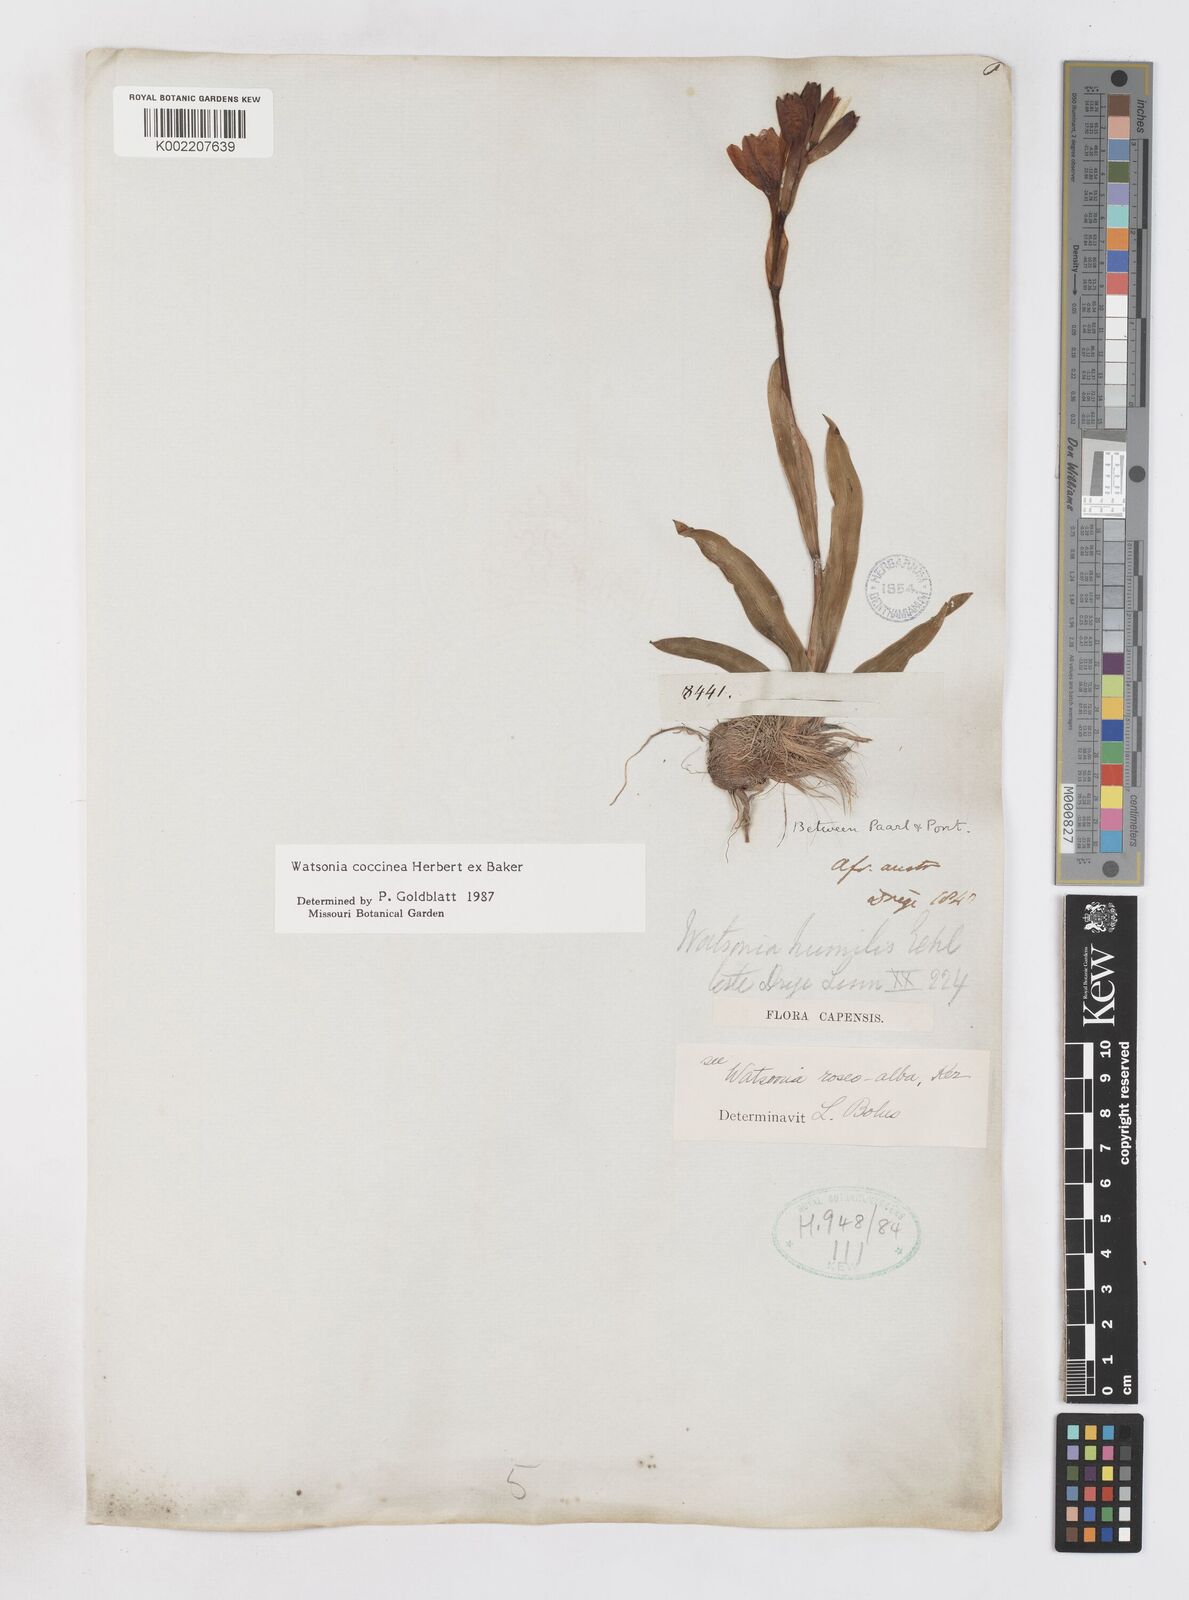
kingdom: Plantae
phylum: Tracheophyta
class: Liliopsida
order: Asparagales
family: Iridaceae
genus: Watsonia
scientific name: Watsonia coccinea
